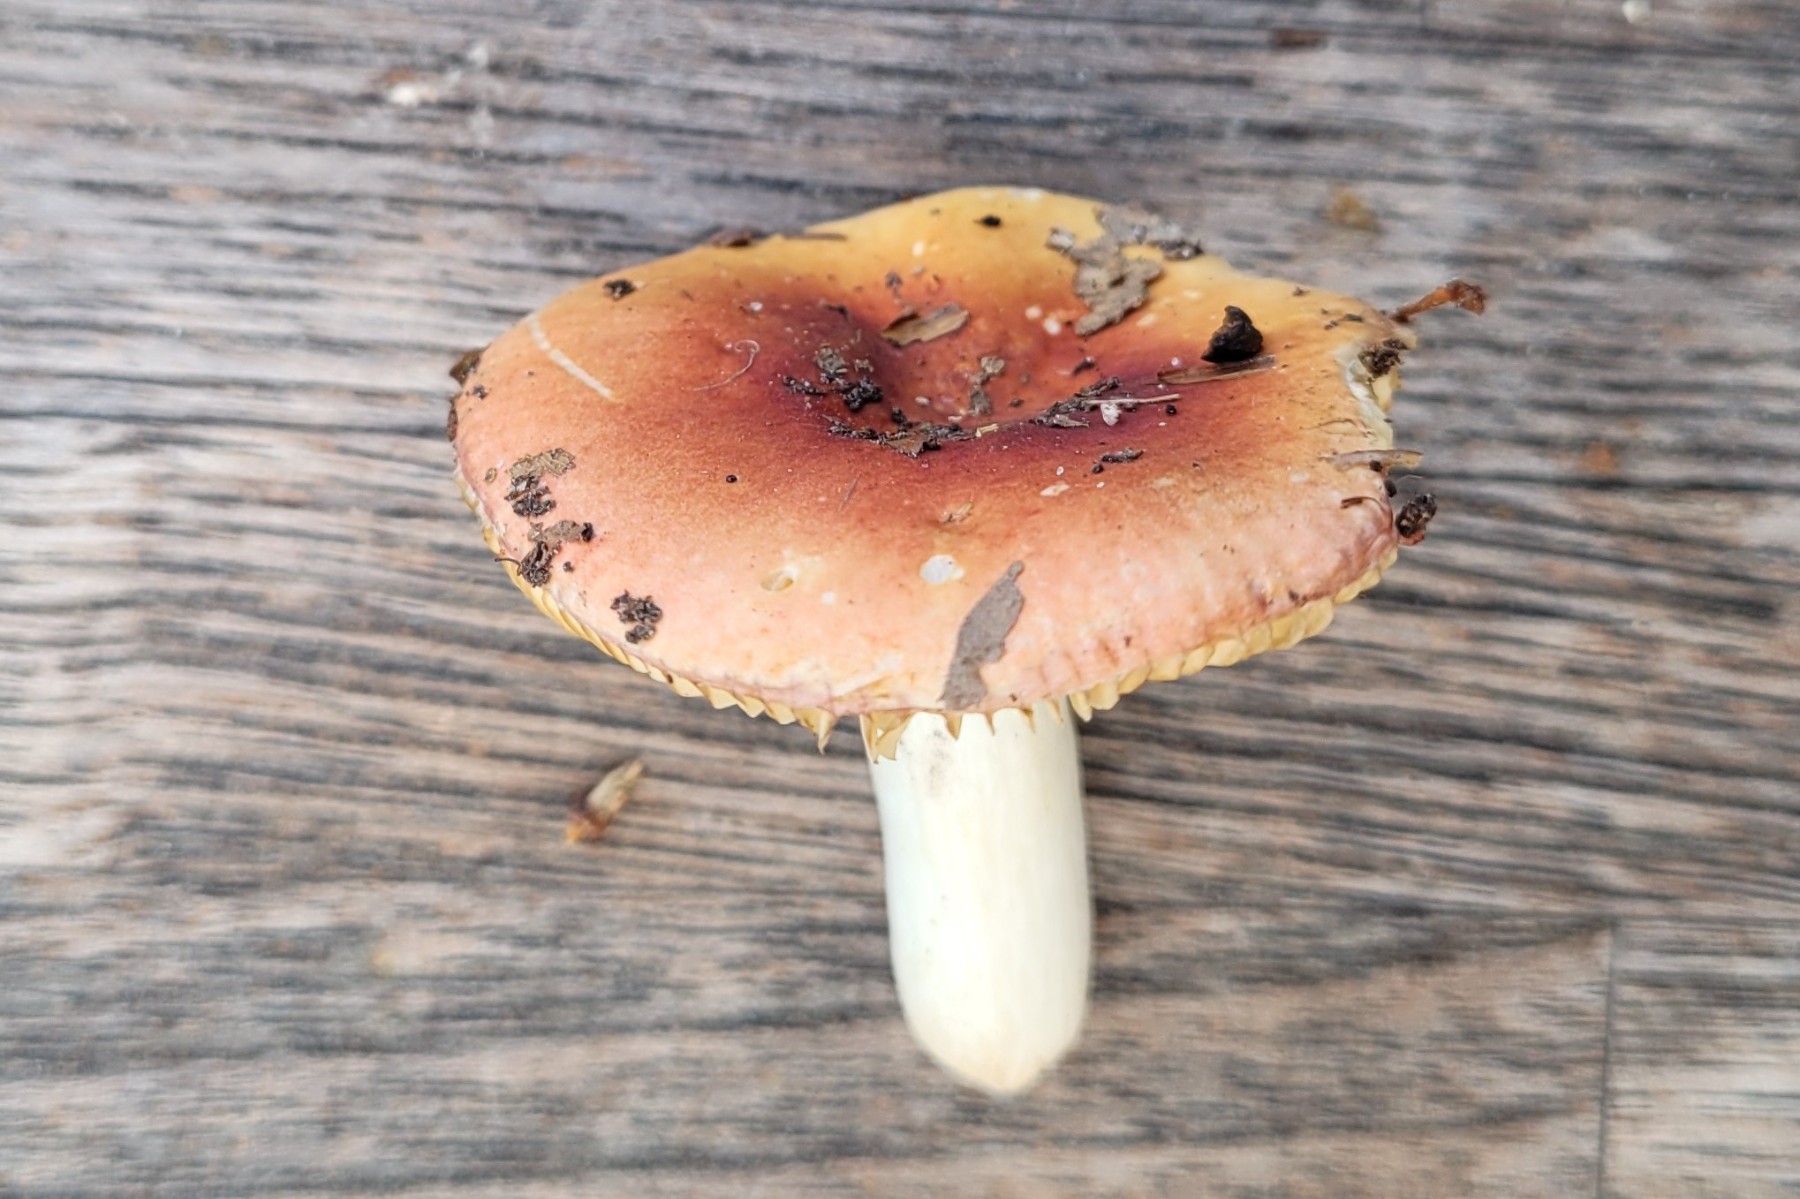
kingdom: Fungi
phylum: Basidiomycota
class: Agaricomycetes
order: Russulales
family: Russulaceae
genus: Russula
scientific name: Russula laeta
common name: orangerosa skørhat
